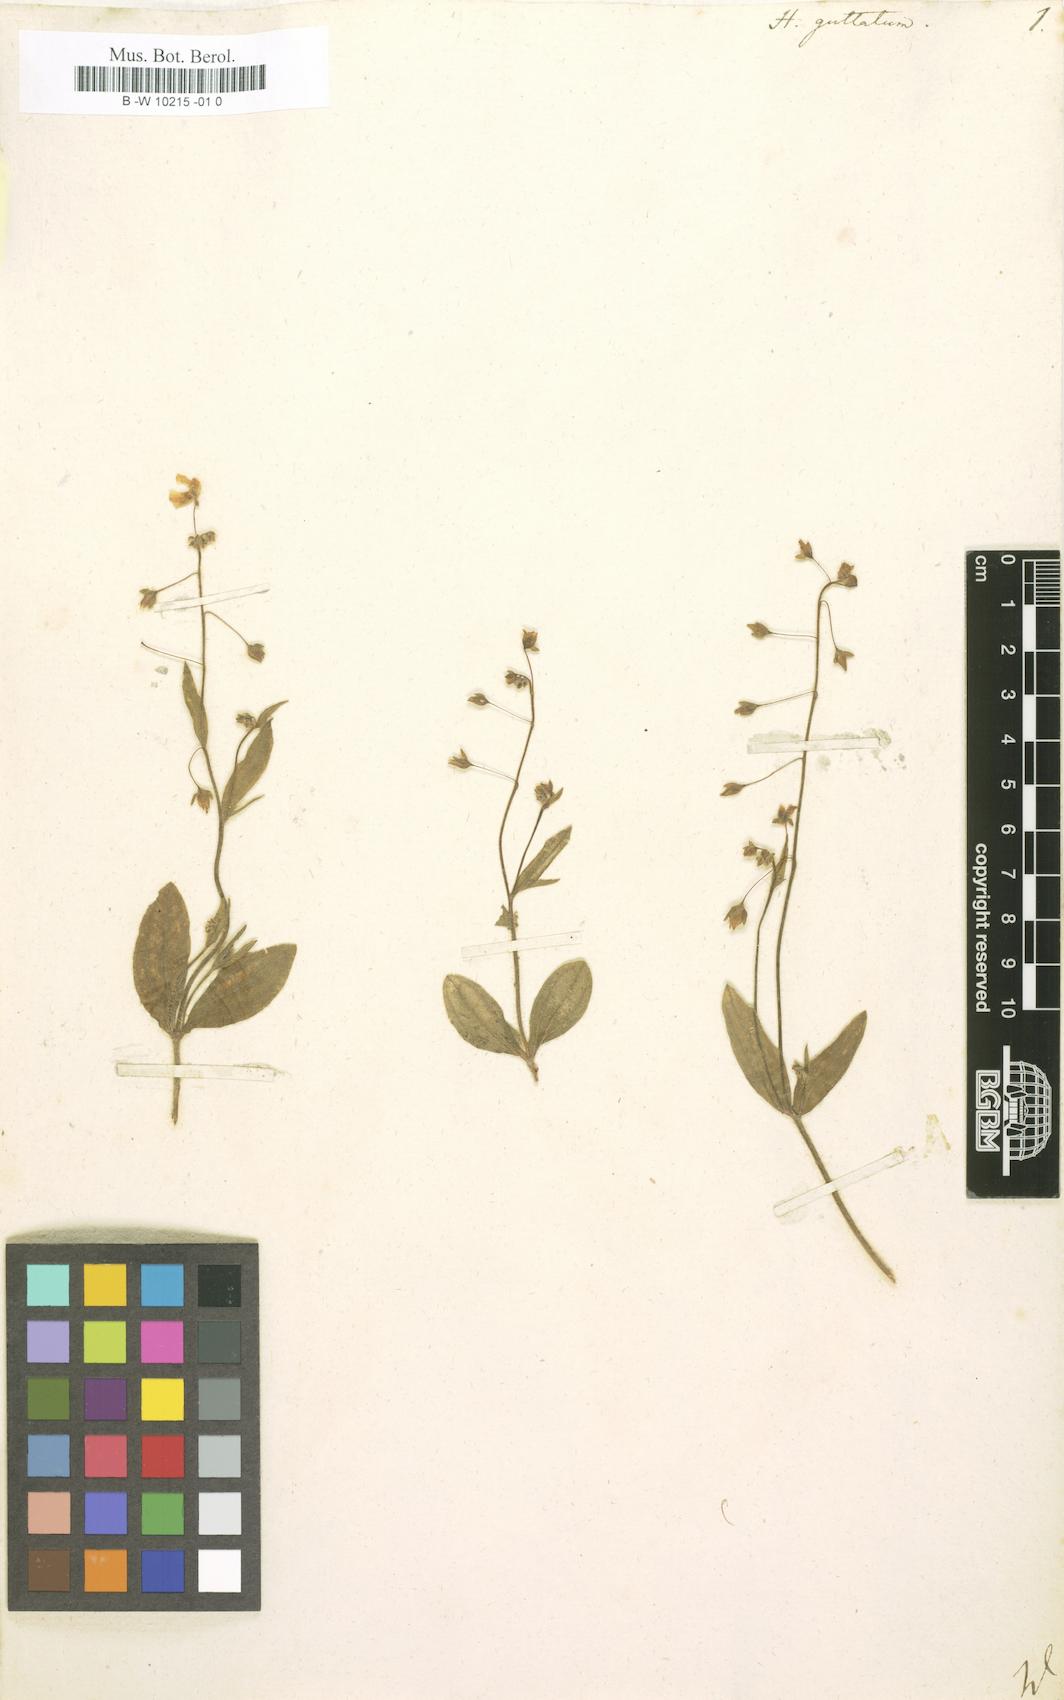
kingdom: Plantae
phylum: Tracheophyta
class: Magnoliopsida
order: Malvales
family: Cistaceae
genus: Tuberaria
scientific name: Tuberaria guttata
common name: Spotted rock-rose
